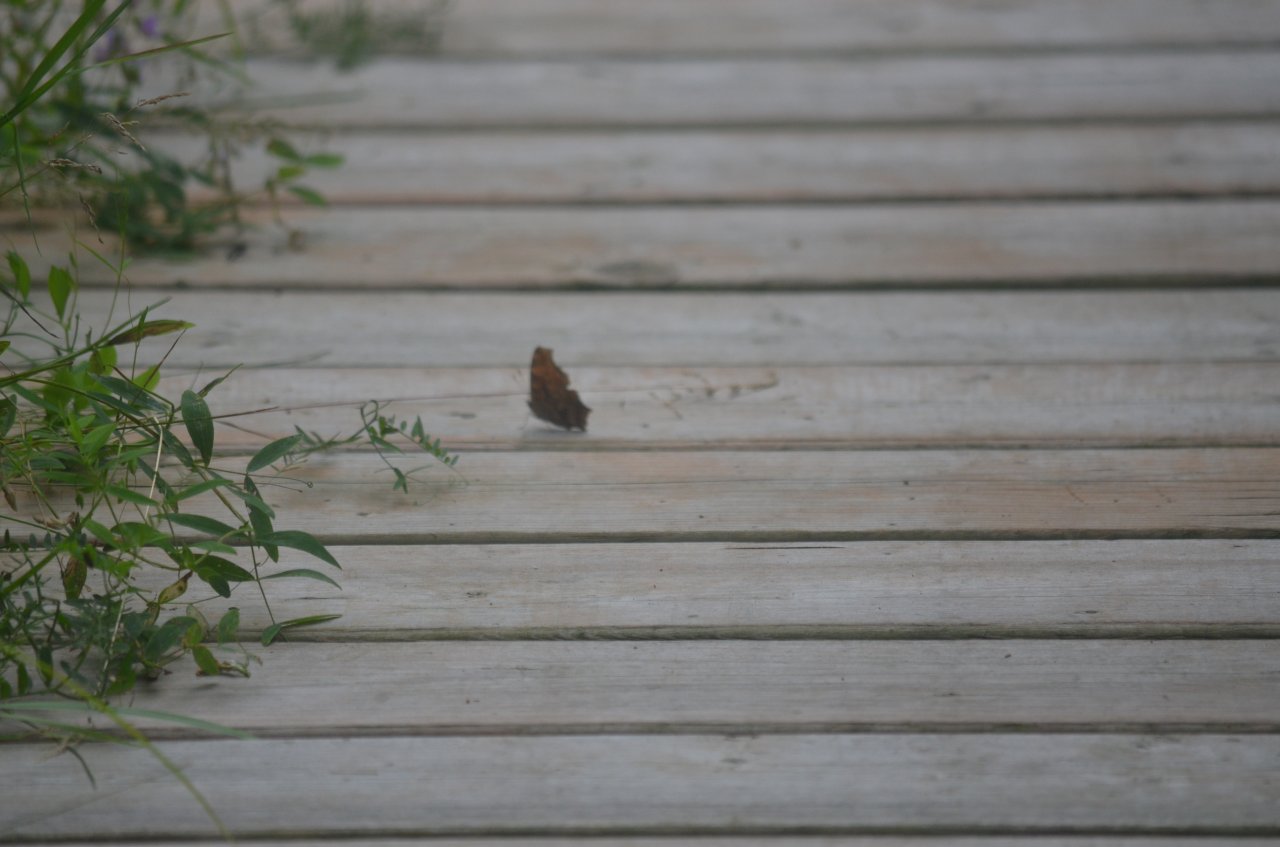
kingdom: Animalia
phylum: Arthropoda
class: Insecta
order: Lepidoptera
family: Hesperiidae
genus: Euphyes
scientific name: Euphyes vestris
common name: Dun Skipper
